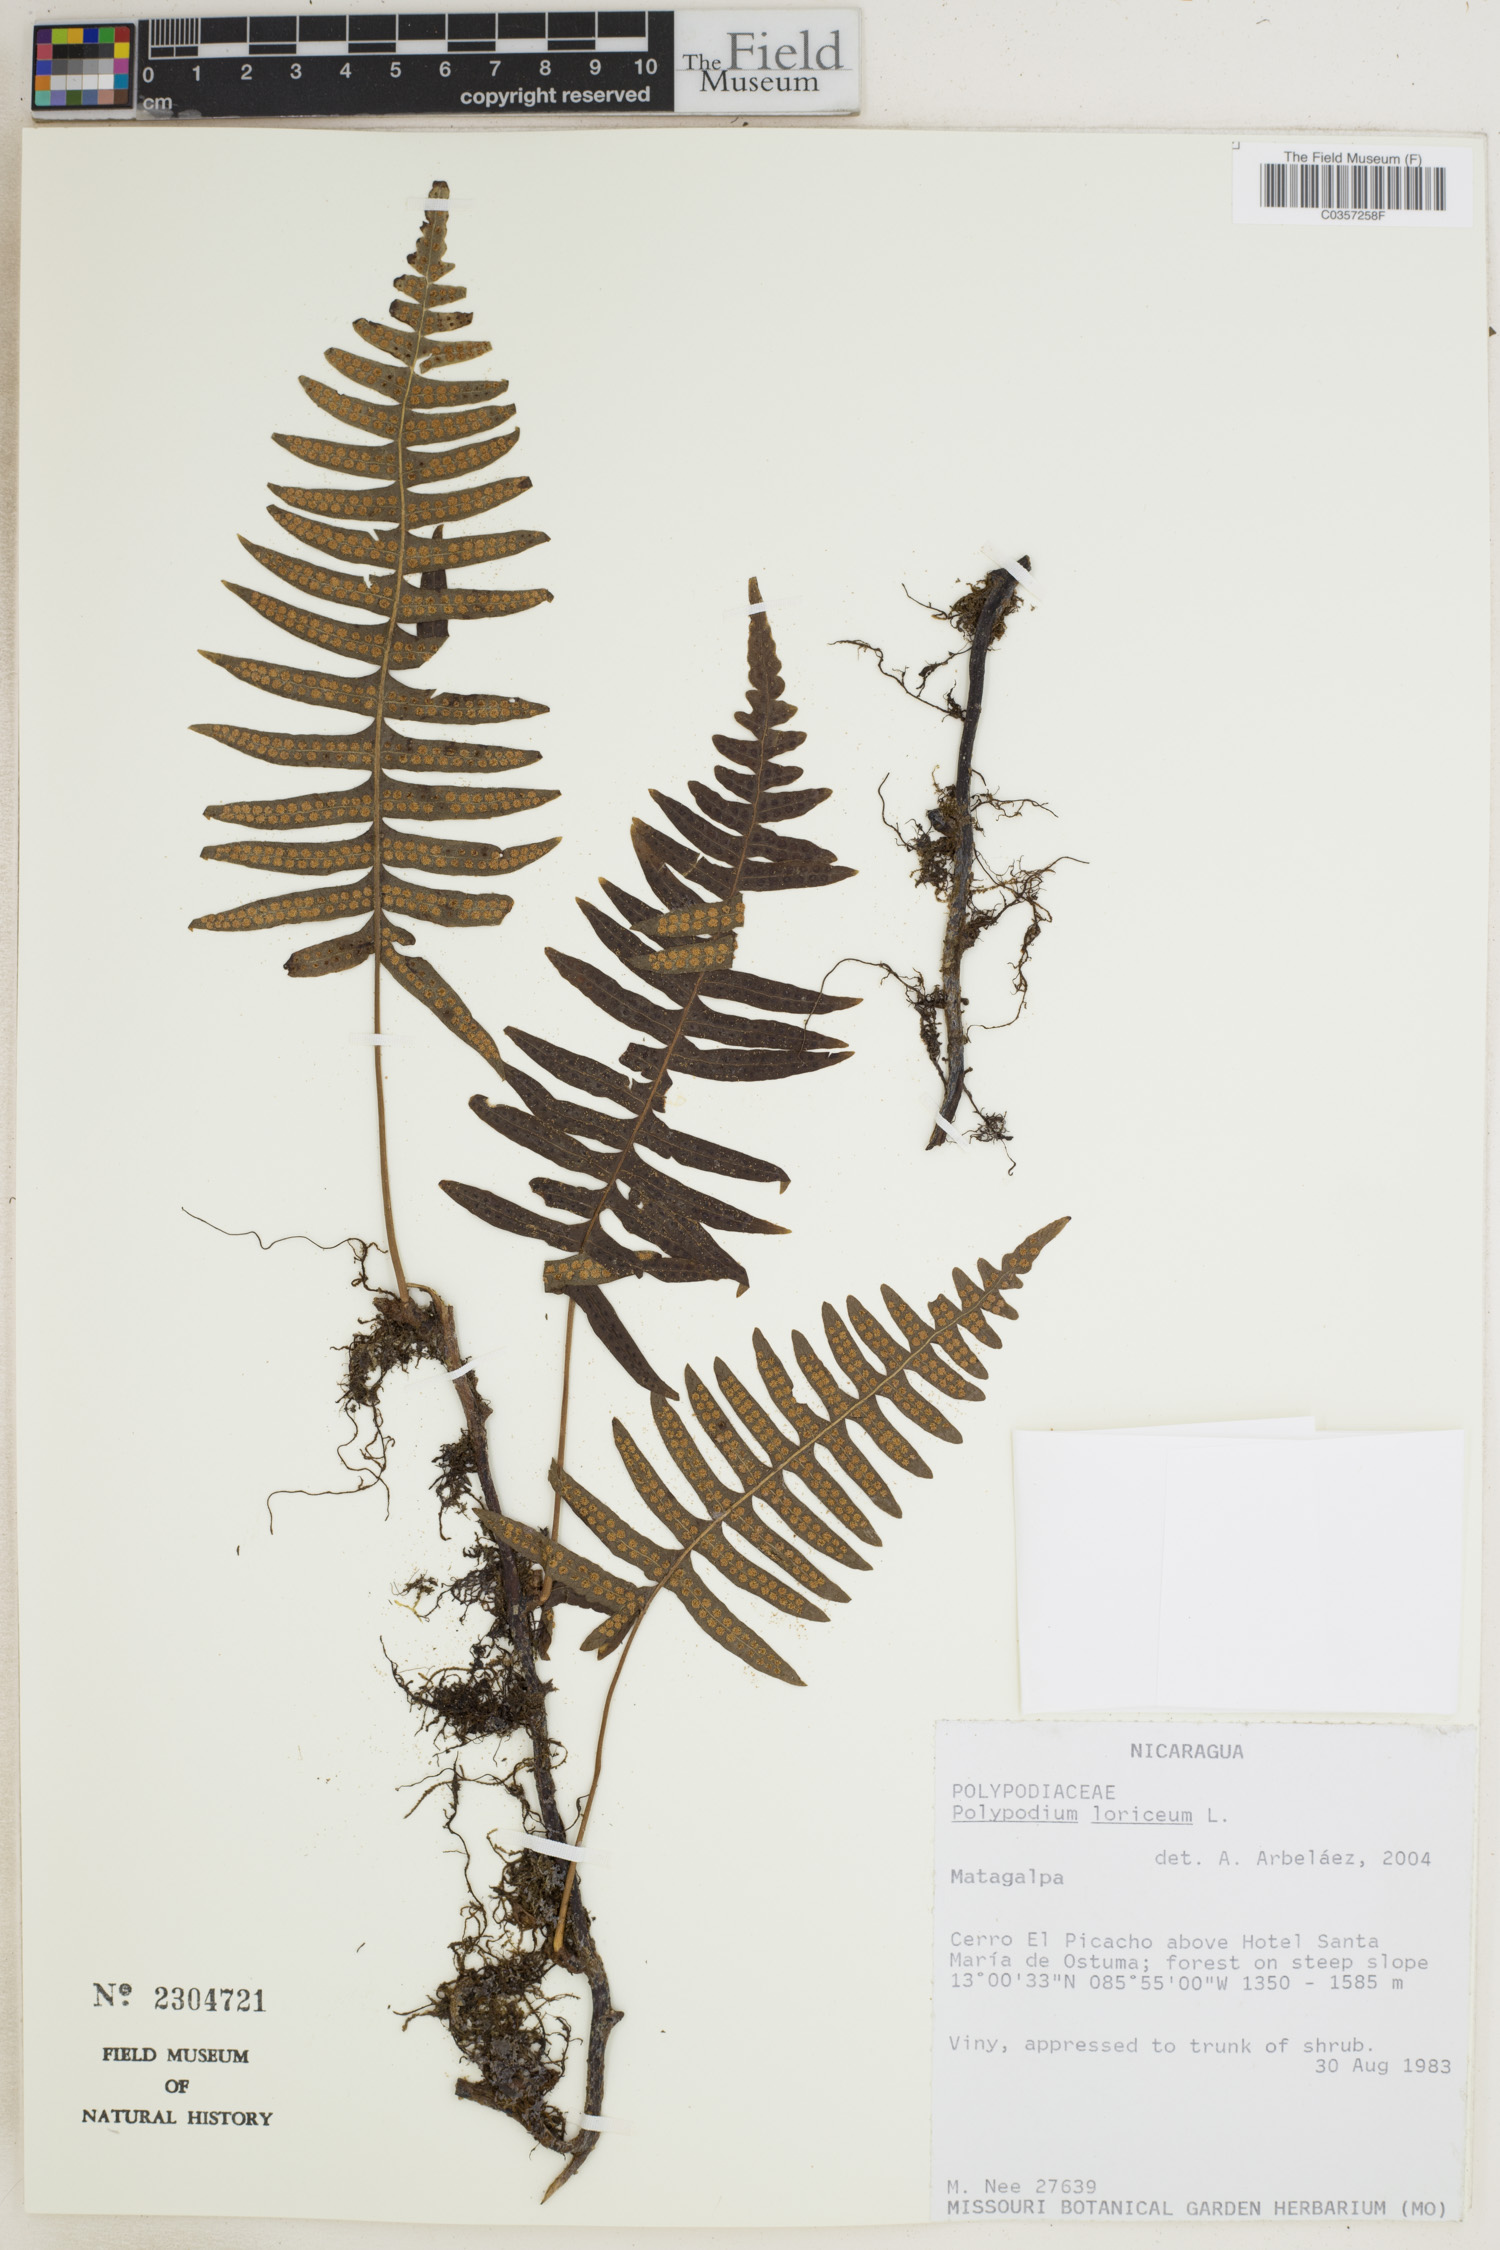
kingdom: Plantae
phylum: Tracheophyta
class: Polypodiopsida
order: Polypodiales
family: Polypodiaceae
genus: Serpocaulon
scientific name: Serpocaulon loriceum
